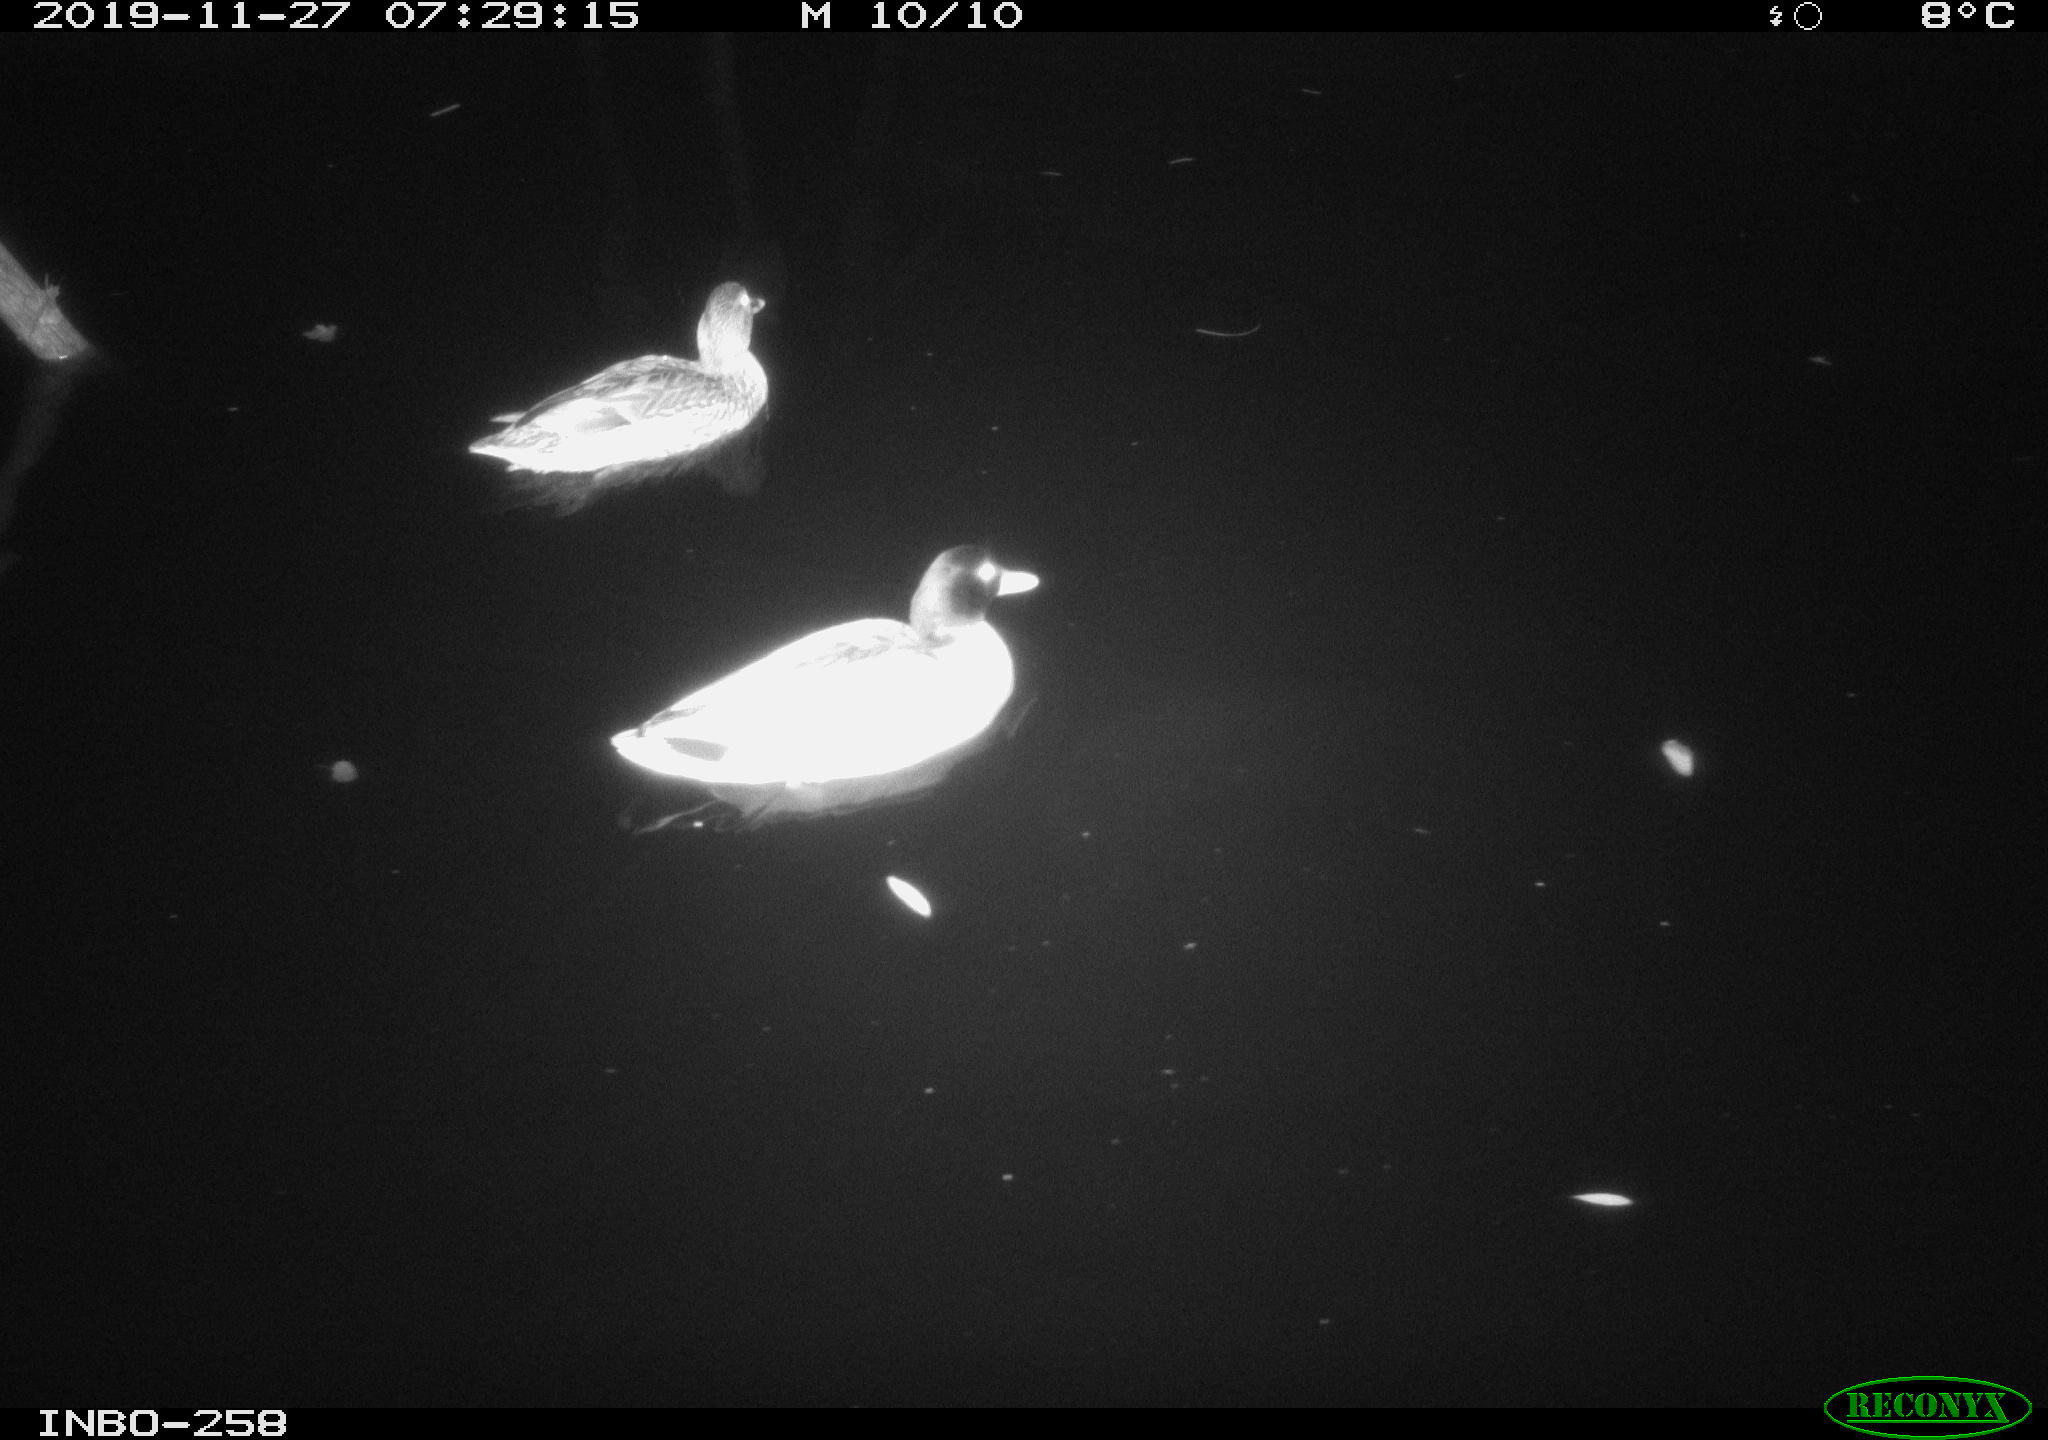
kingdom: Animalia
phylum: Chordata
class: Aves
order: Anseriformes
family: Anatidae
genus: Anas
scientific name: Anas platyrhynchos
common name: Mallard
